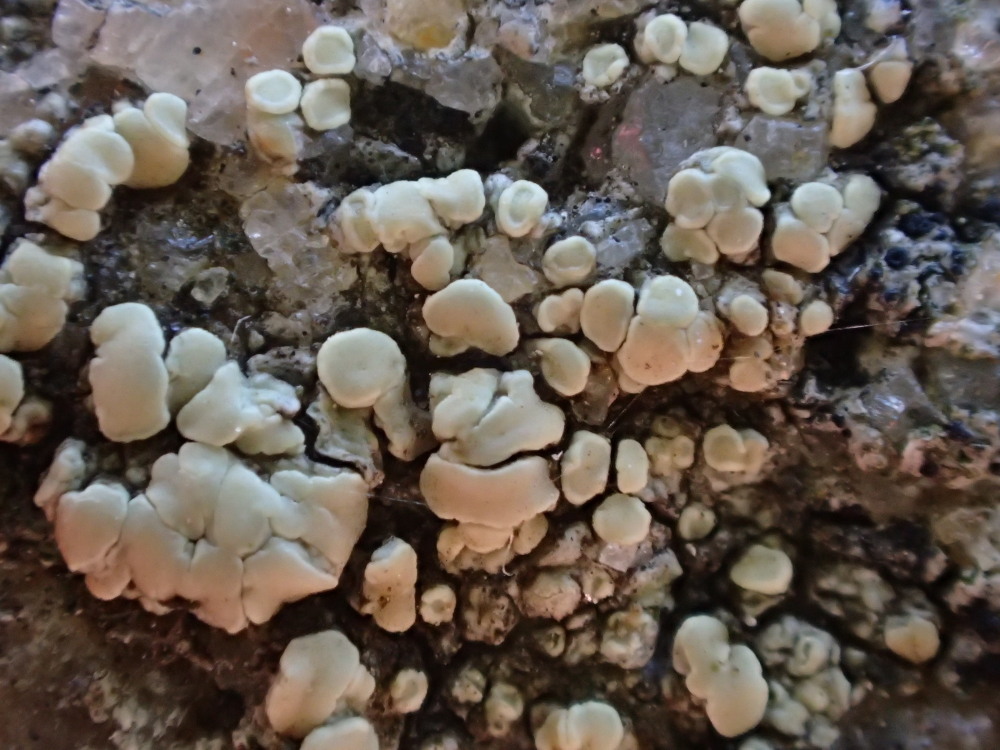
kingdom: Fungi
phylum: Ascomycota
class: Lecanoromycetes
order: Lecanorales
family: Lecanoraceae
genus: Lecanora
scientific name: Lecanora polytropa
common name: bleggrøn kantskivelav
